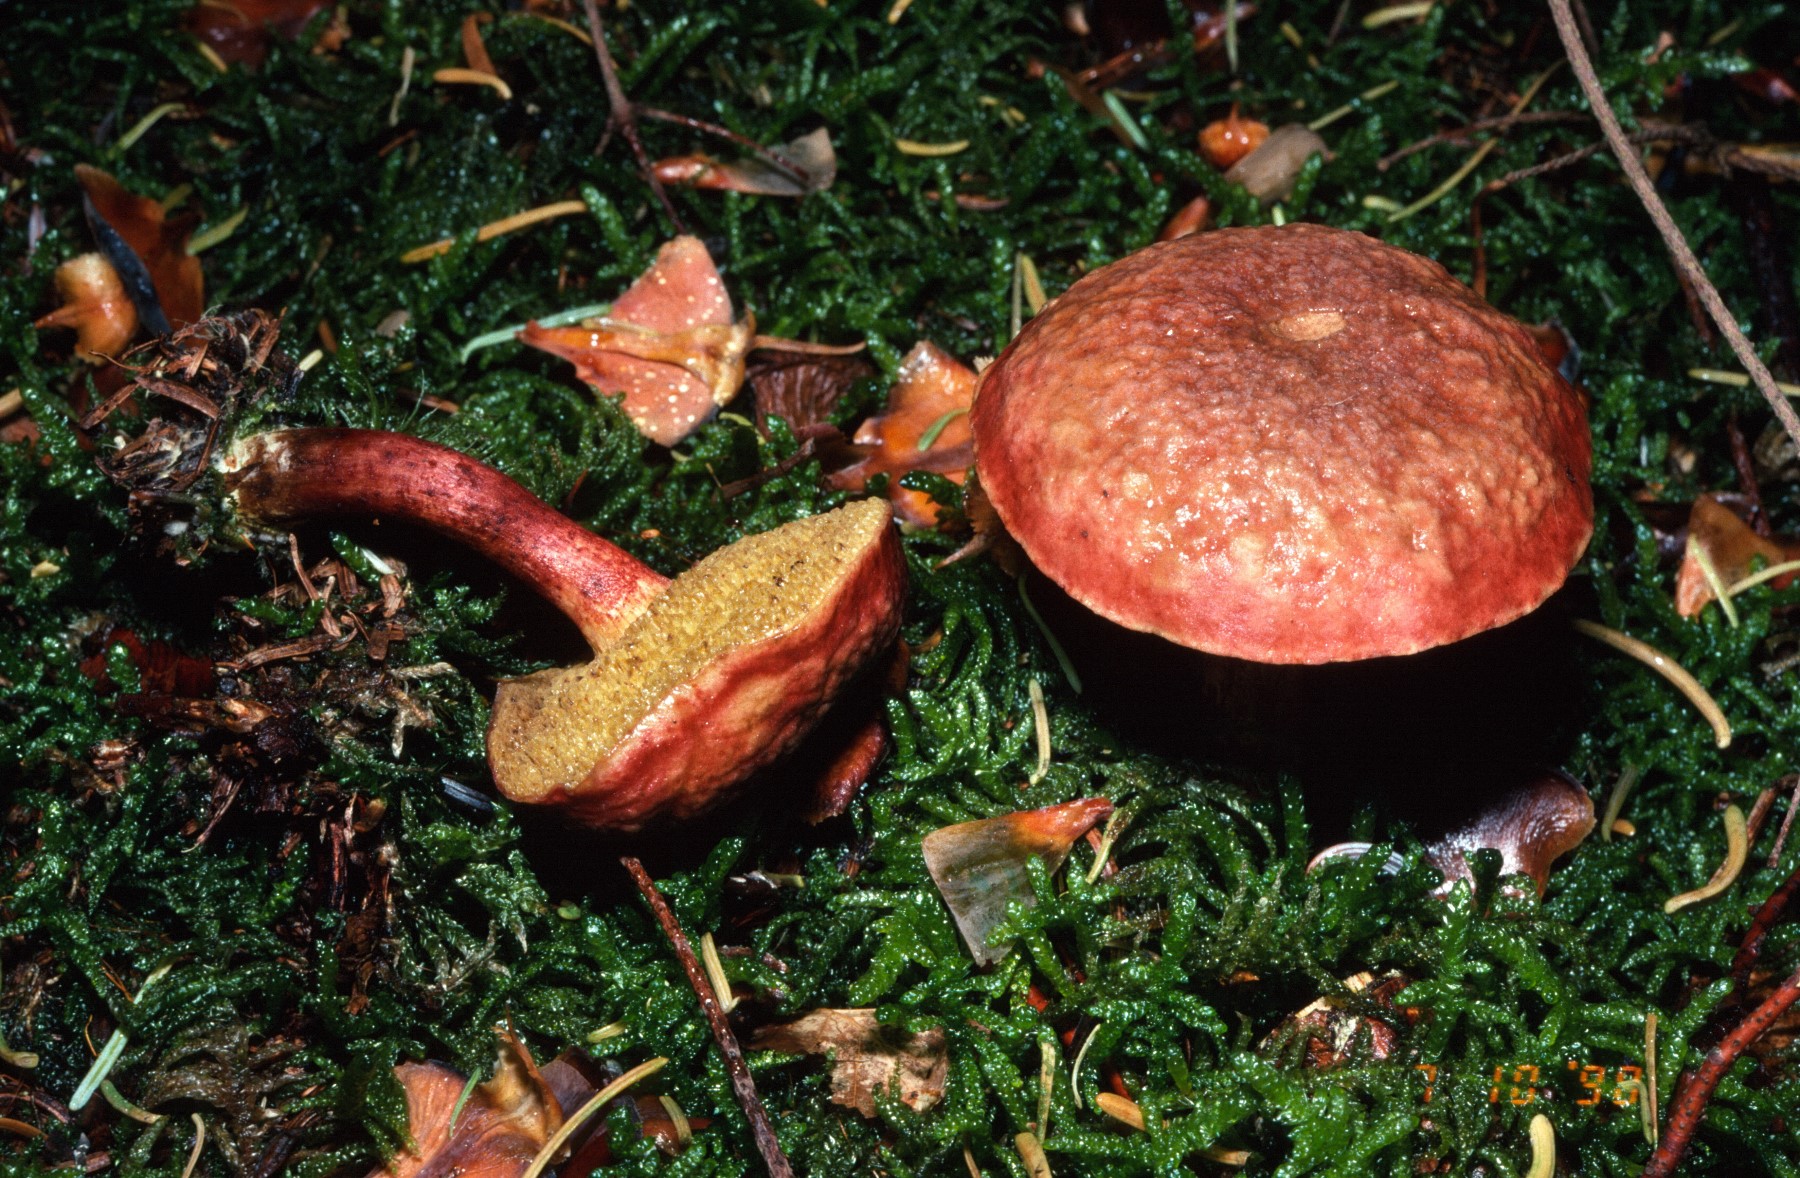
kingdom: Fungi
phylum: Basidiomycota
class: Agaricomycetes
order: Boletales
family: Boletaceae
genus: Hortiboletus
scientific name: Hortiboletus rubellus
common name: blodrød rørhat
